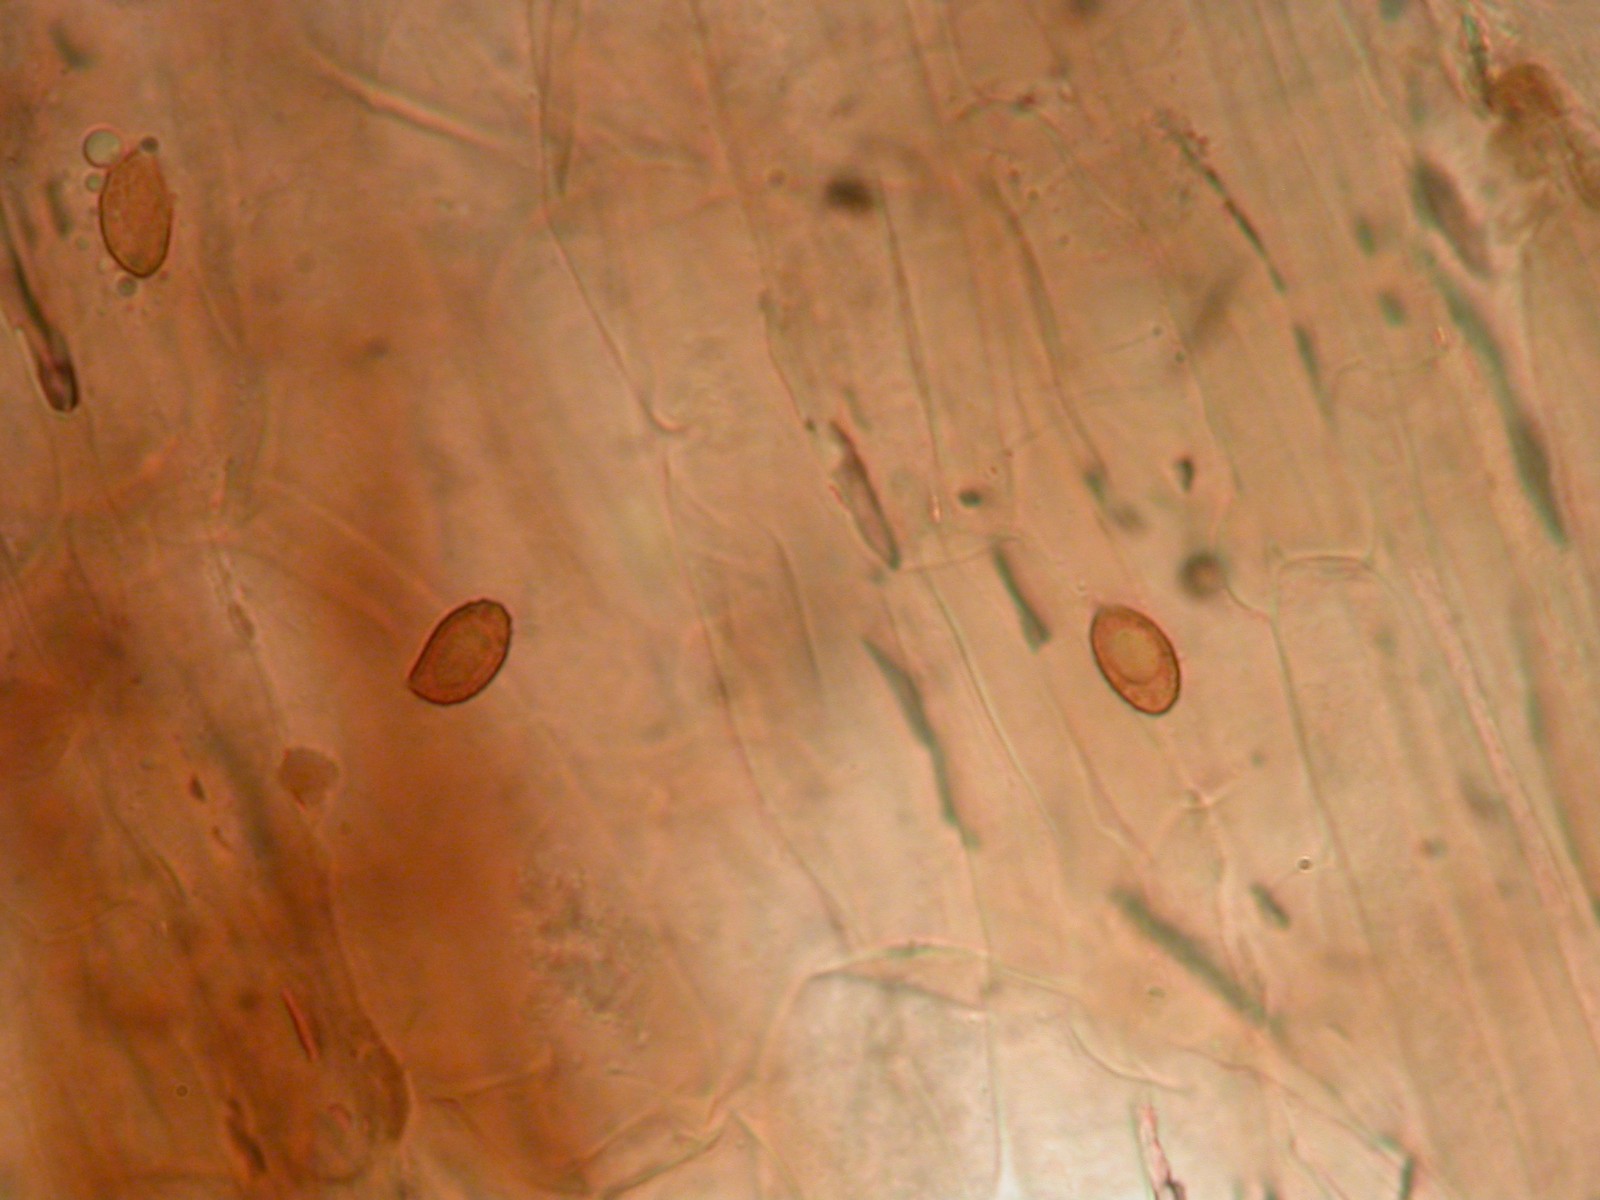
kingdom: Fungi
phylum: Basidiomycota
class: Agaricomycetes
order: Agaricales
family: Cortinariaceae
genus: Cortinarius
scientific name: Cortinarius neofurvolaesus
